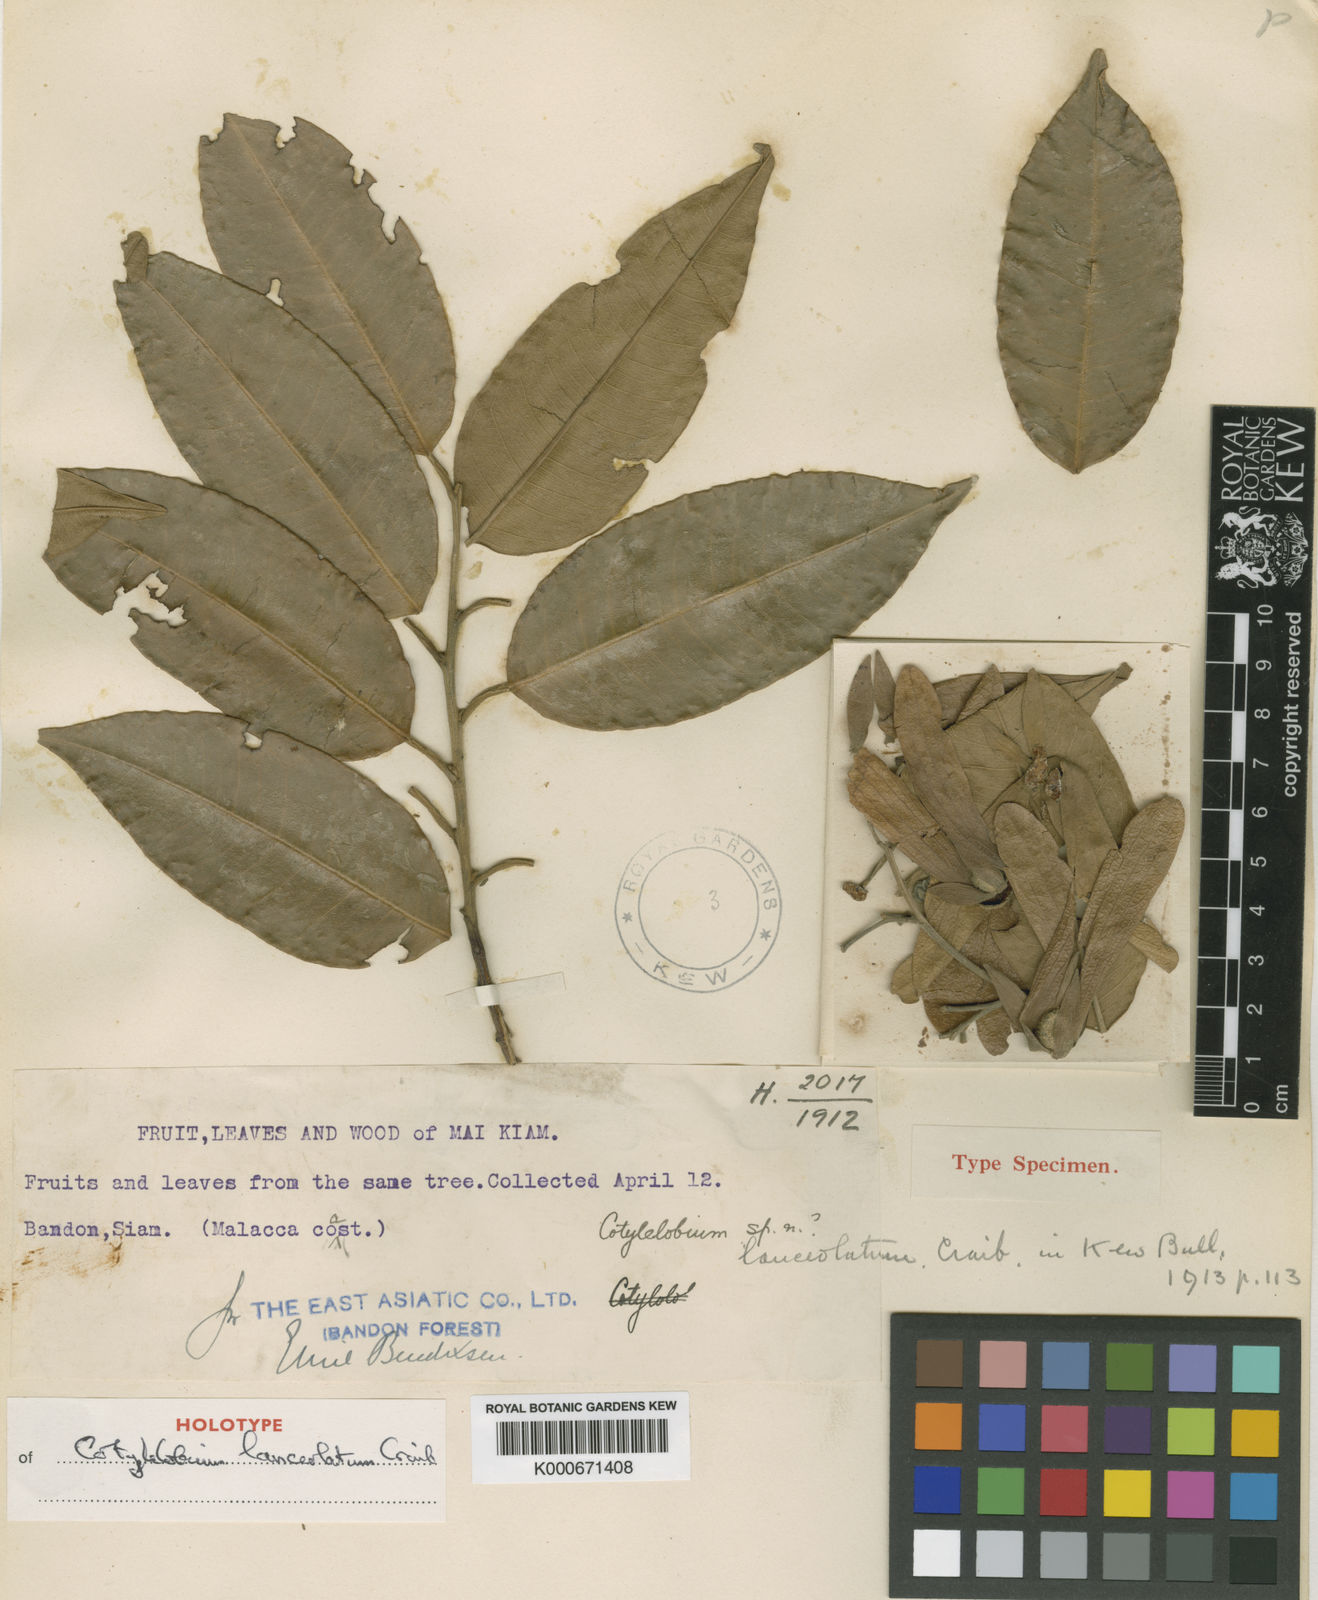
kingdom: Plantae
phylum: Tracheophyta
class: Magnoliopsida
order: Malvales
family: Dipterocarpaceae
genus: Cotylelobium
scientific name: Cotylelobium lanceolatum
